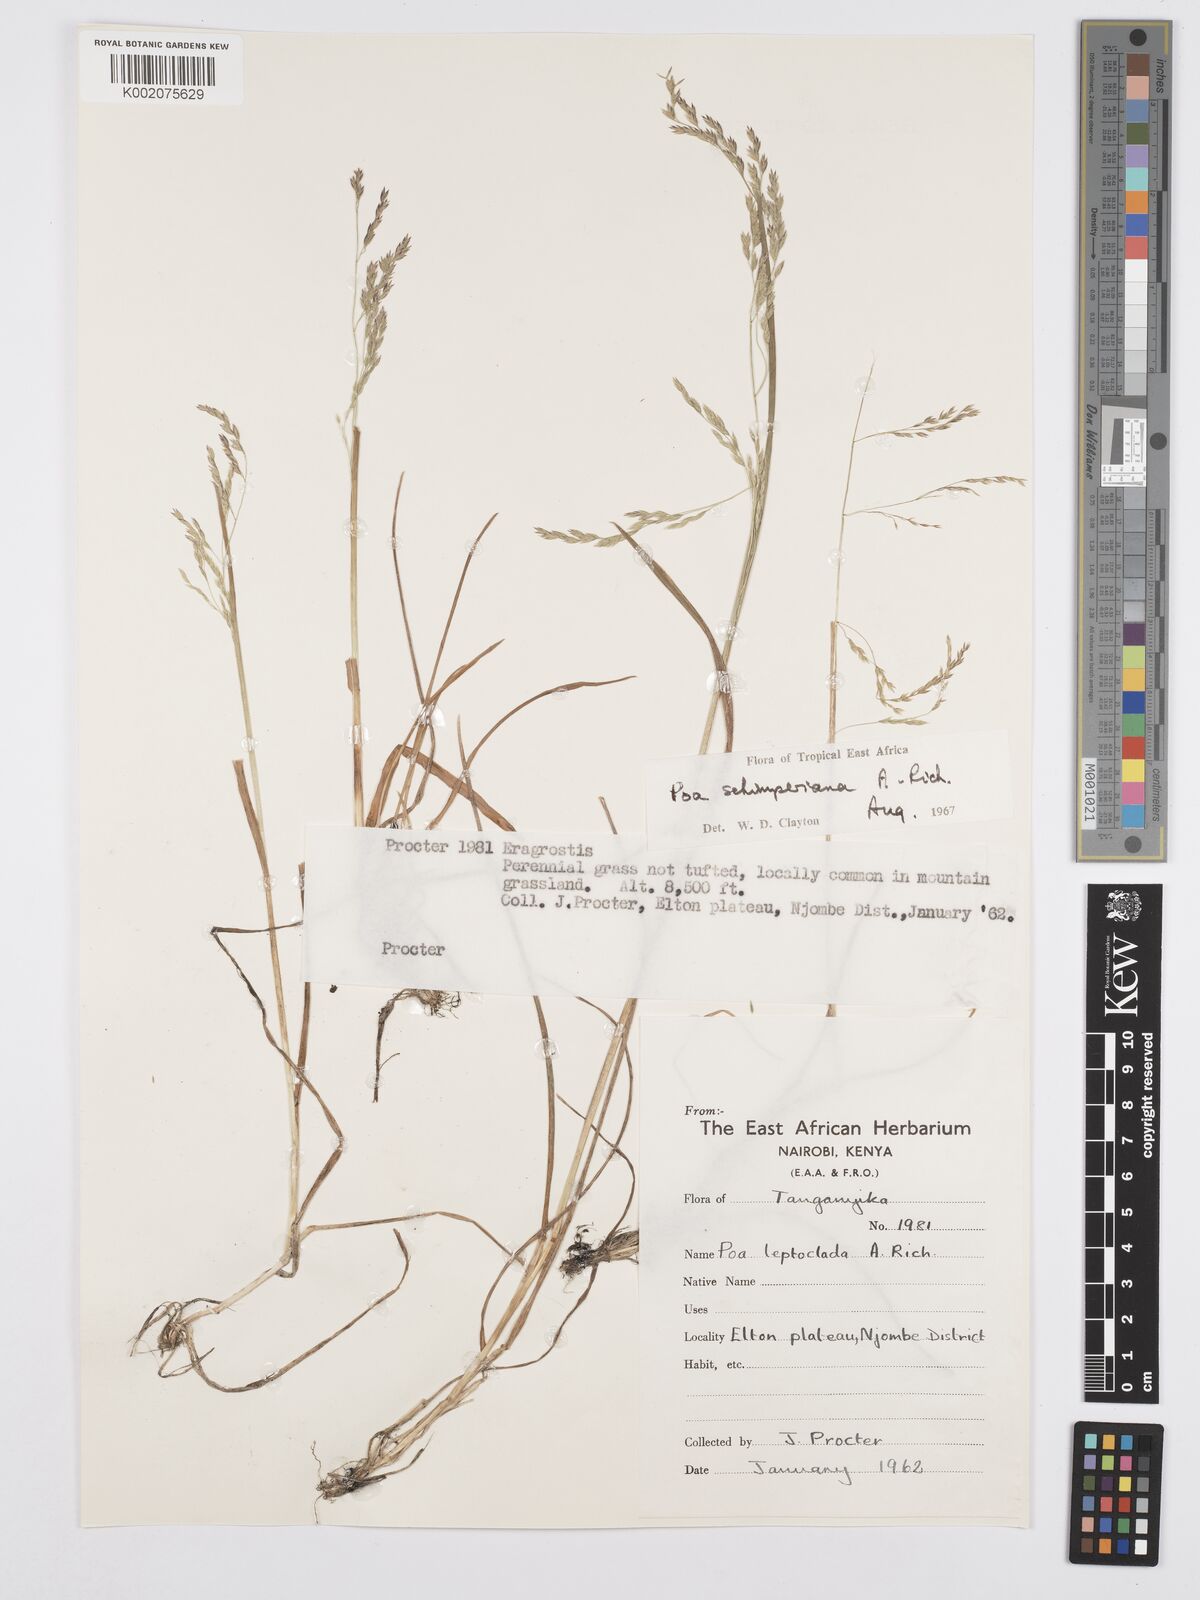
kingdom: Plantae
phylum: Tracheophyta
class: Liliopsida
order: Poales
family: Poaceae
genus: Poa
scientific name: Poa schimperiana
